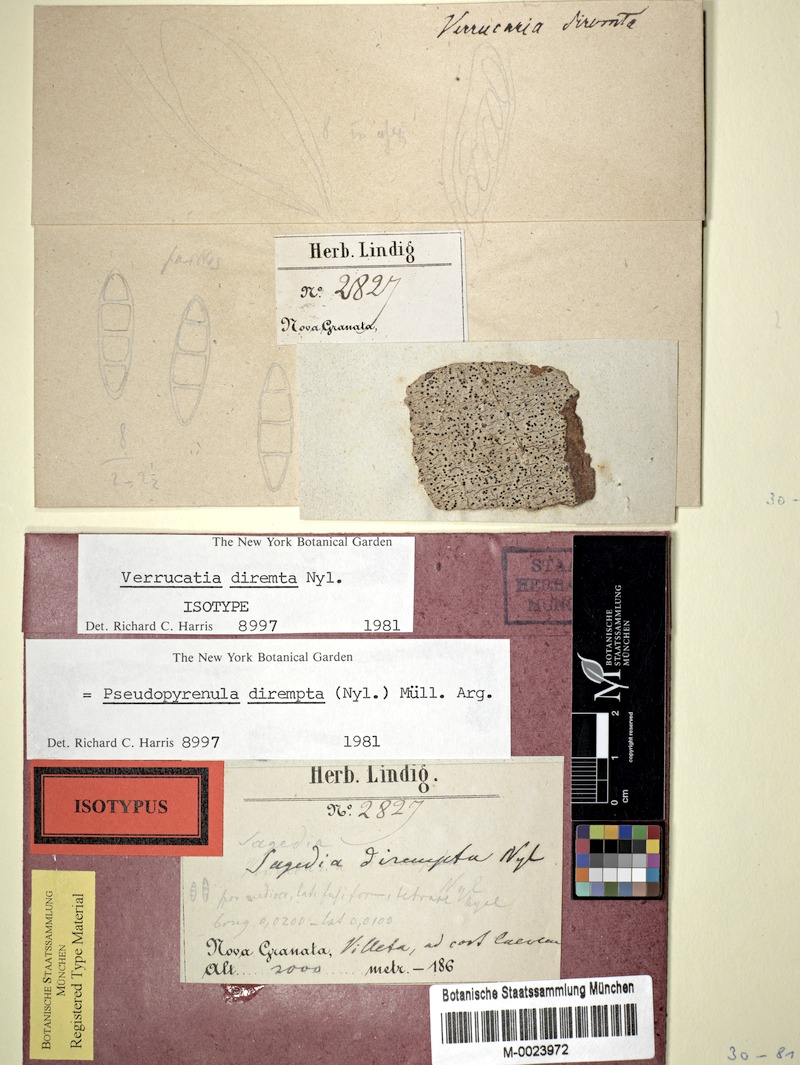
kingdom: Fungi
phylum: Ascomycota
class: Dothideomycetes
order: Trypetheliales
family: Trypetheliaceae
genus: Pseudopyrenula
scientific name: Pseudopyrenula
